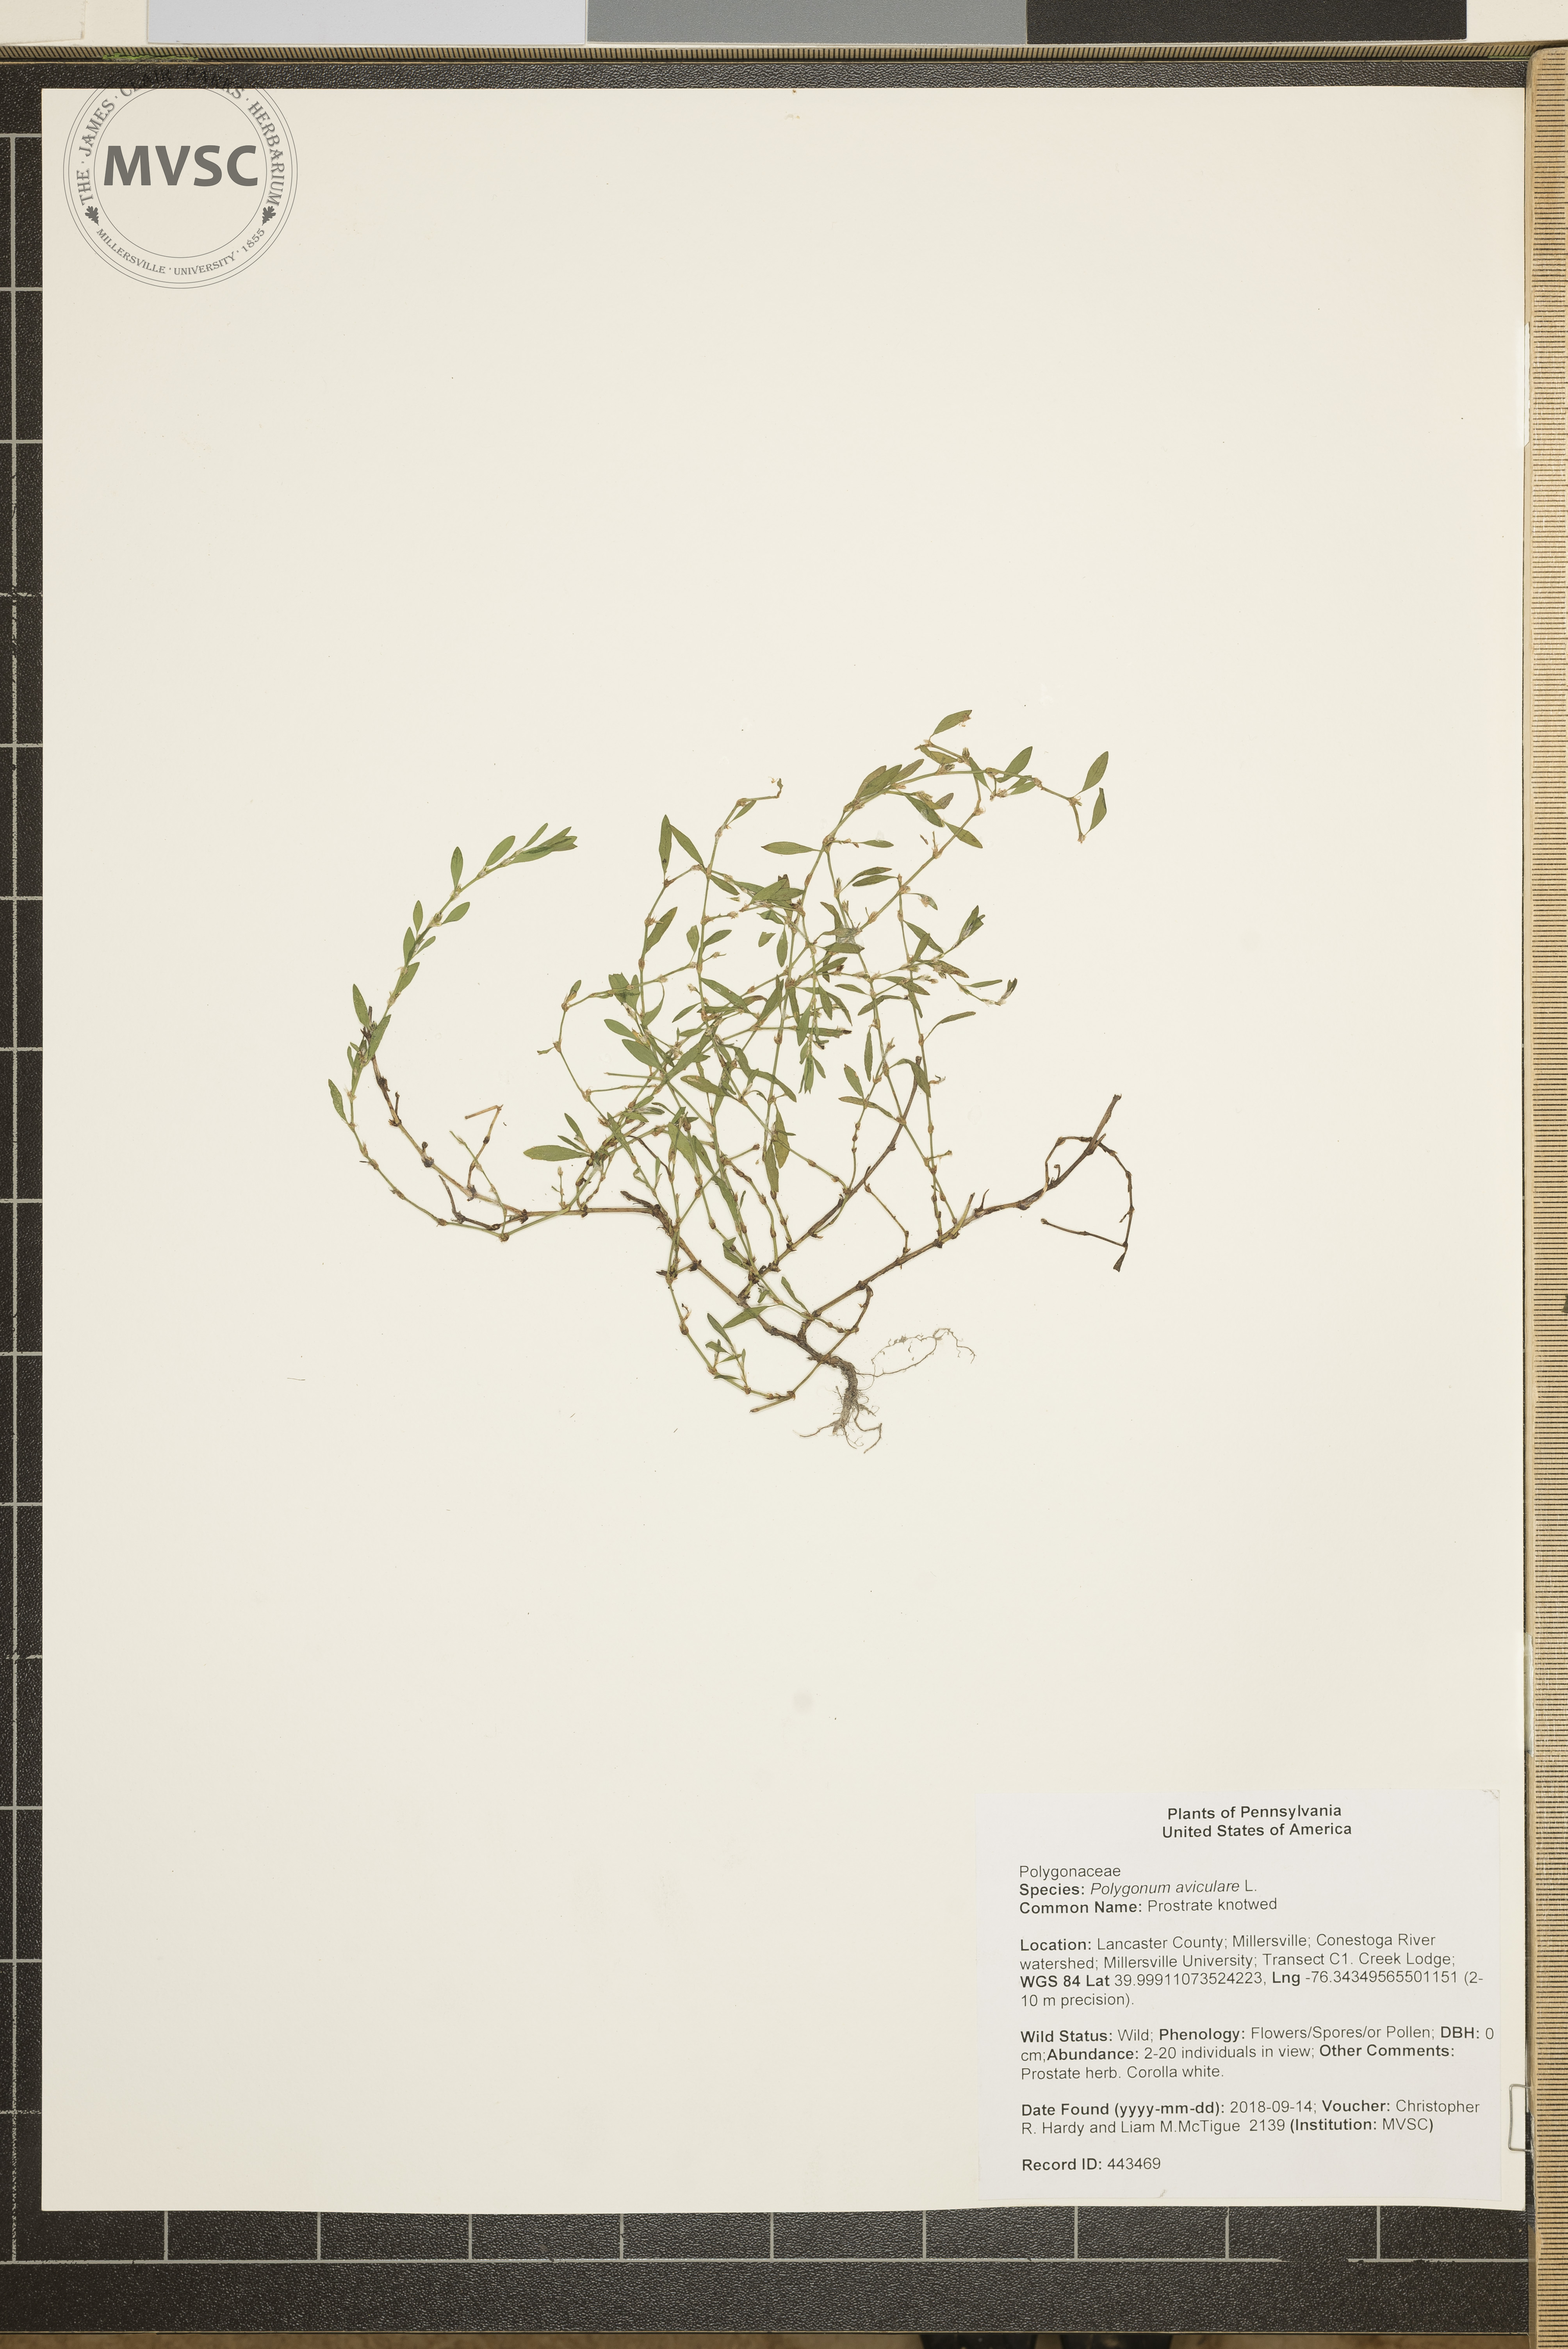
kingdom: Plantae
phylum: Tracheophyta
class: Magnoliopsida
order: Caryophyllales
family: Polygonaceae
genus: Polygonum
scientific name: Polygonum aviculare
